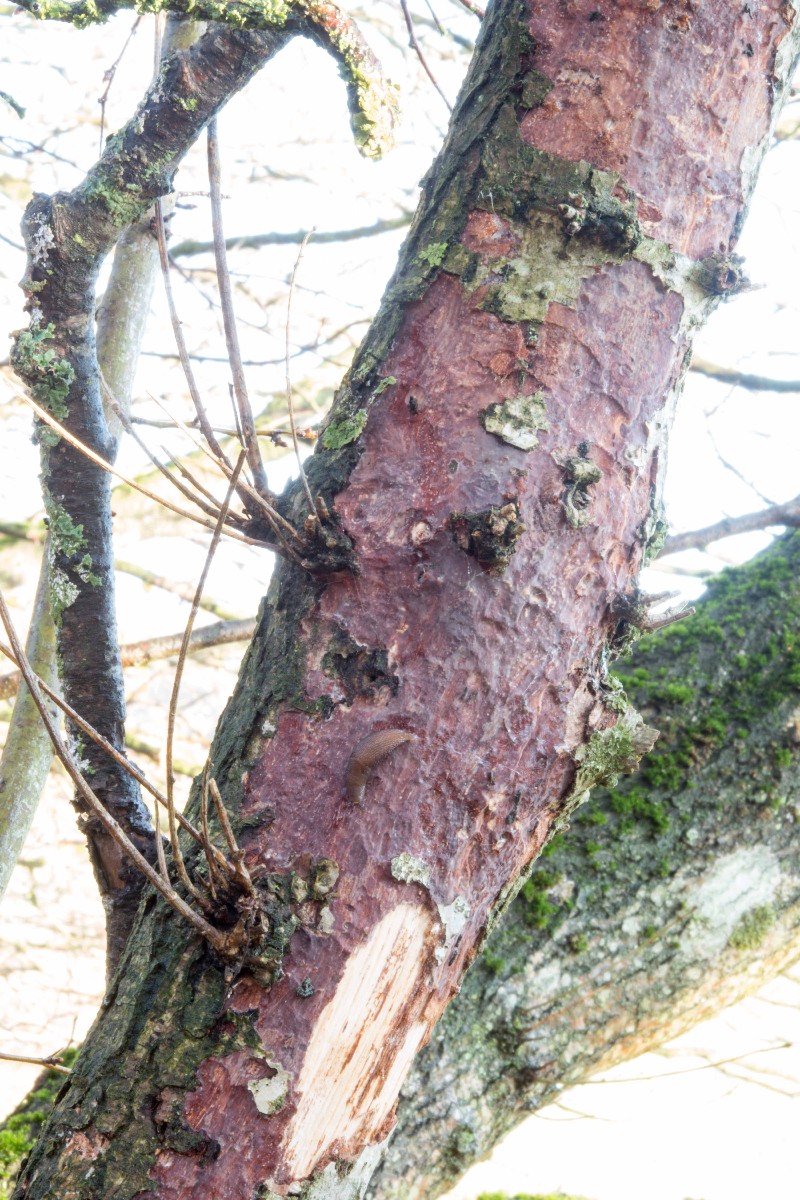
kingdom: Fungi
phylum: Basidiomycota
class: Agaricomycetes
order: Corticiales
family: Vuilleminiaceae
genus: Vuilleminia
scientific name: Vuilleminia coryli
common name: hassel-barksprænger
